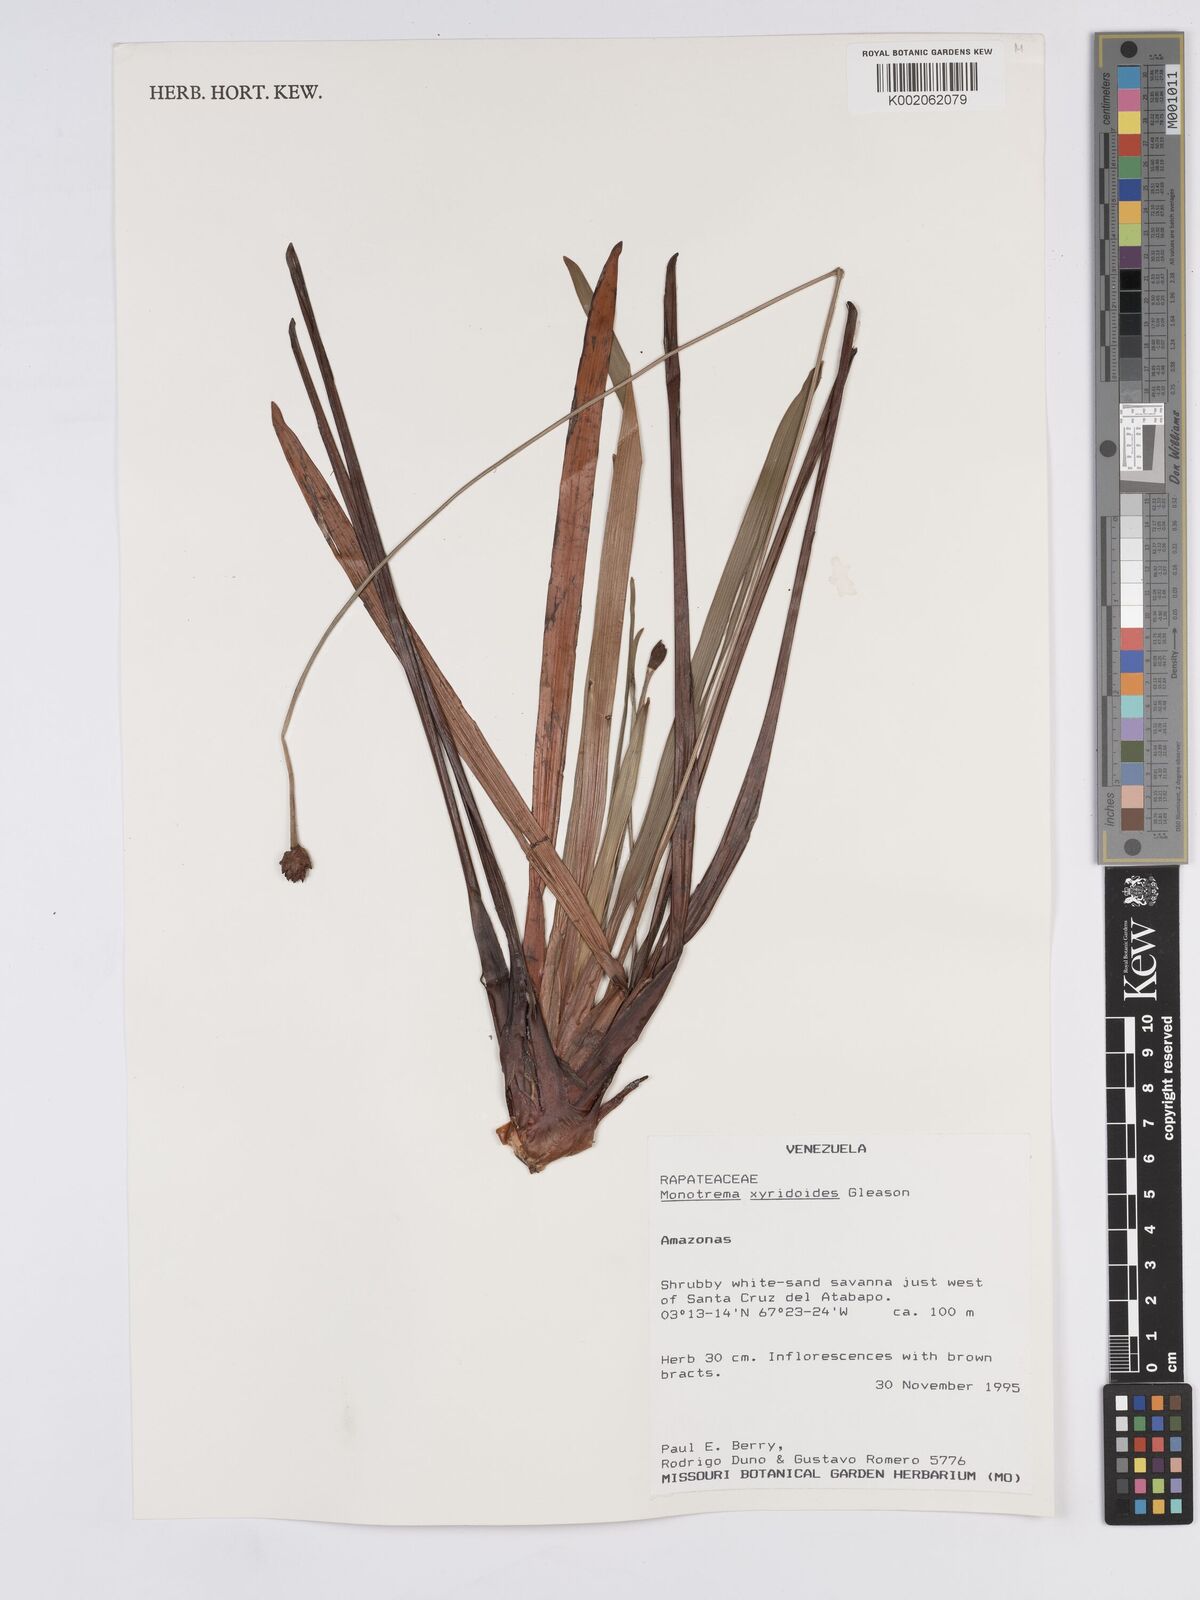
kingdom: Plantae
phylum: Tracheophyta
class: Liliopsida
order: Poales
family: Rapateaceae
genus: Monotrema
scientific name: Monotrema xyridoides
